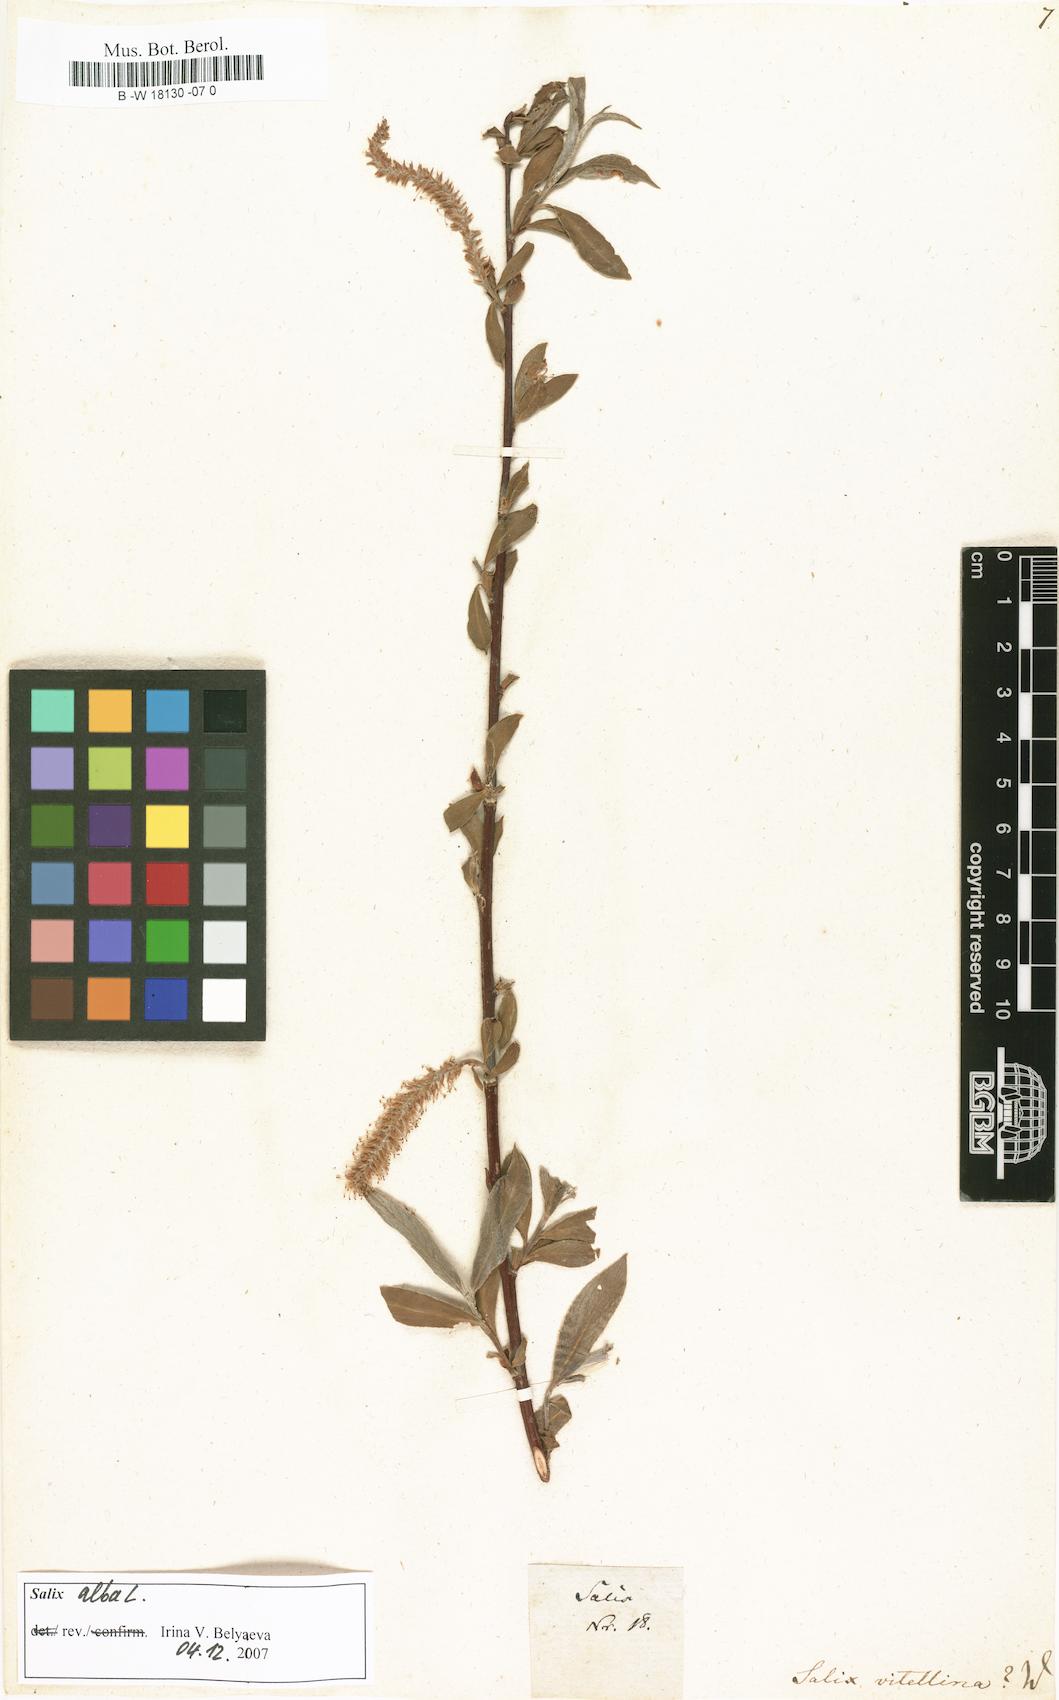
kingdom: Plantae
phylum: Tracheophyta
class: Magnoliopsida
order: Malpighiales
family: Salicaceae
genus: Salix
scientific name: Salix alba
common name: White willow
